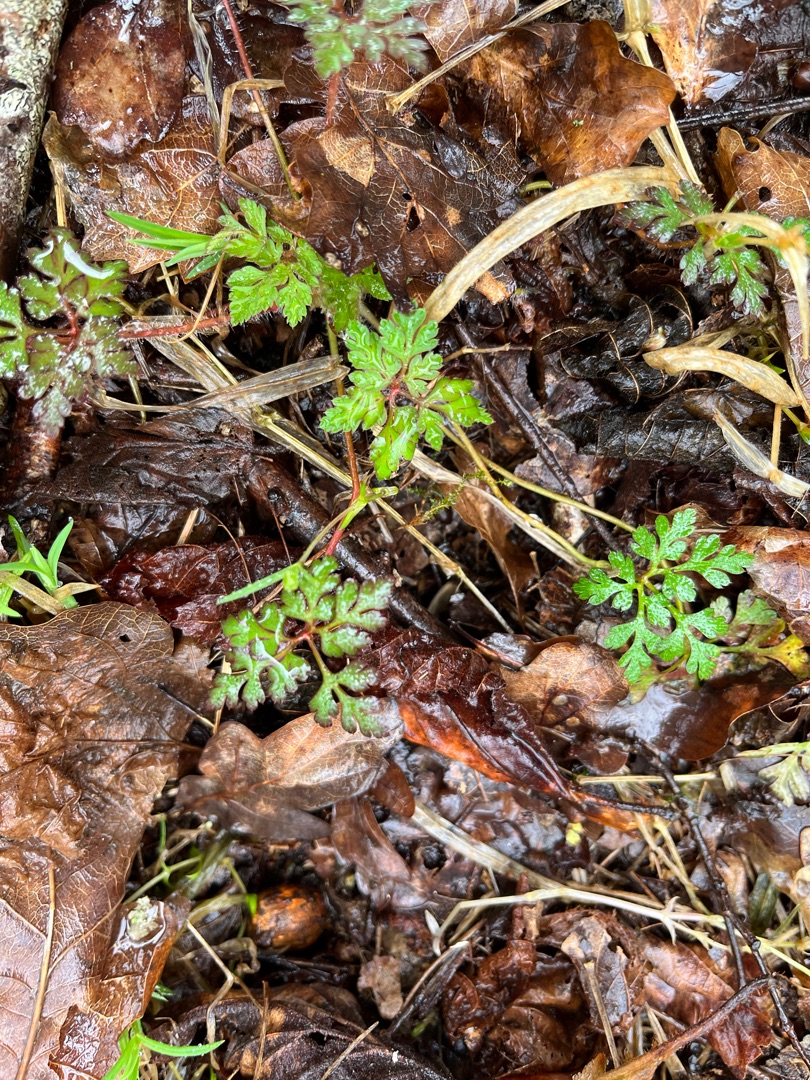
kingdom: Plantae
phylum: Tracheophyta
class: Magnoliopsida
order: Geraniales
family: Geraniaceae
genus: Geranium
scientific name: Geranium robertianum
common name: Stinkende storkenæb
